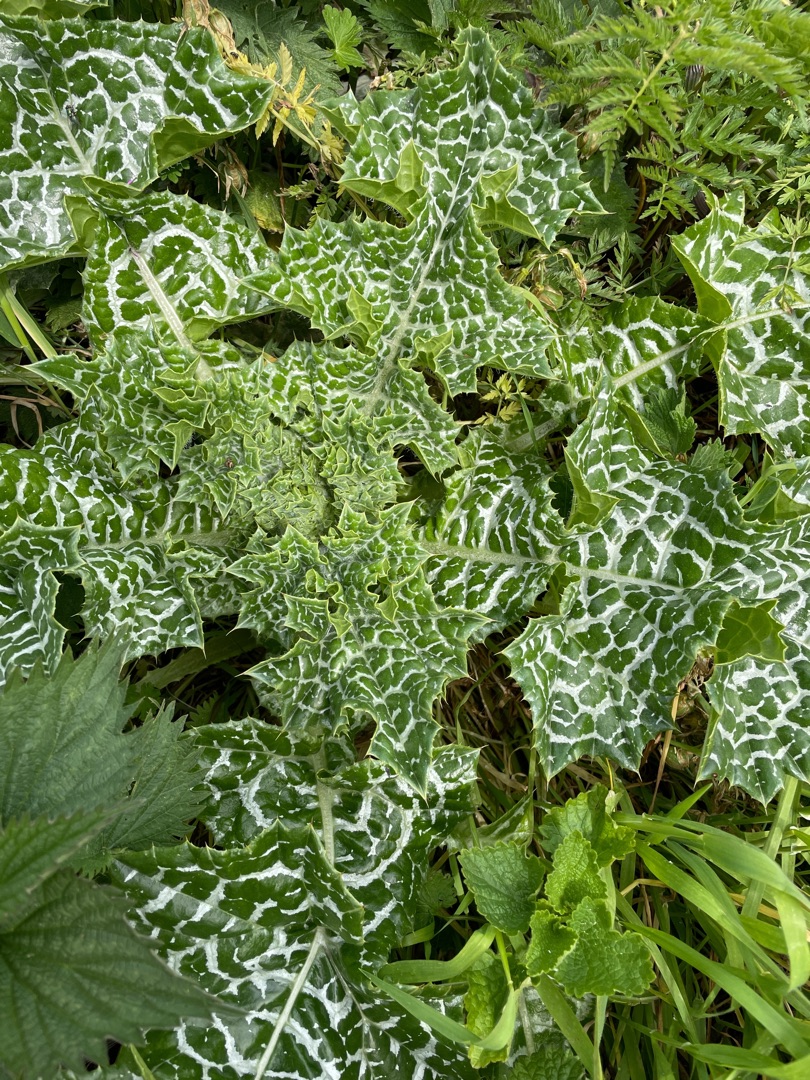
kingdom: Plantae
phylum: Tracheophyta
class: Magnoliopsida
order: Asterales
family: Asteraceae
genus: Silybum
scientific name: Silybum marianum
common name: Marietidsel
